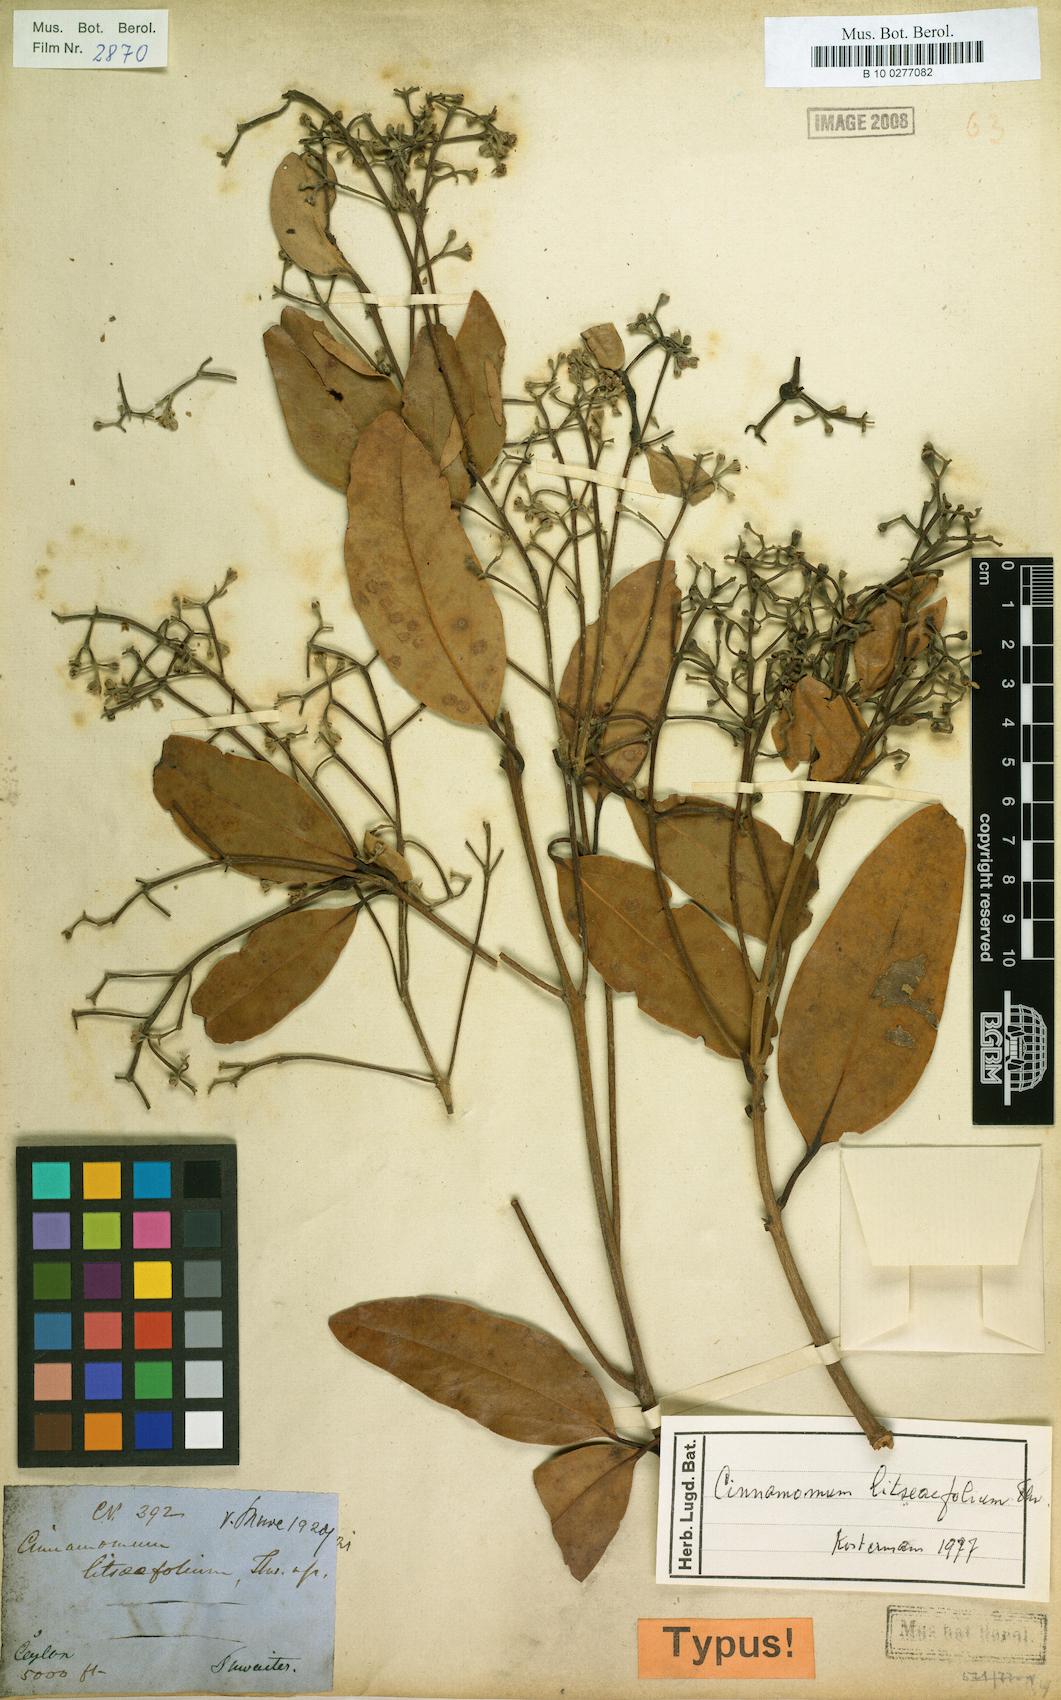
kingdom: Plantae
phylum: Tracheophyta
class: Magnoliopsida
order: Laurales
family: Lauraceae
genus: Cinnamomum
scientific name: Cinnamomum
